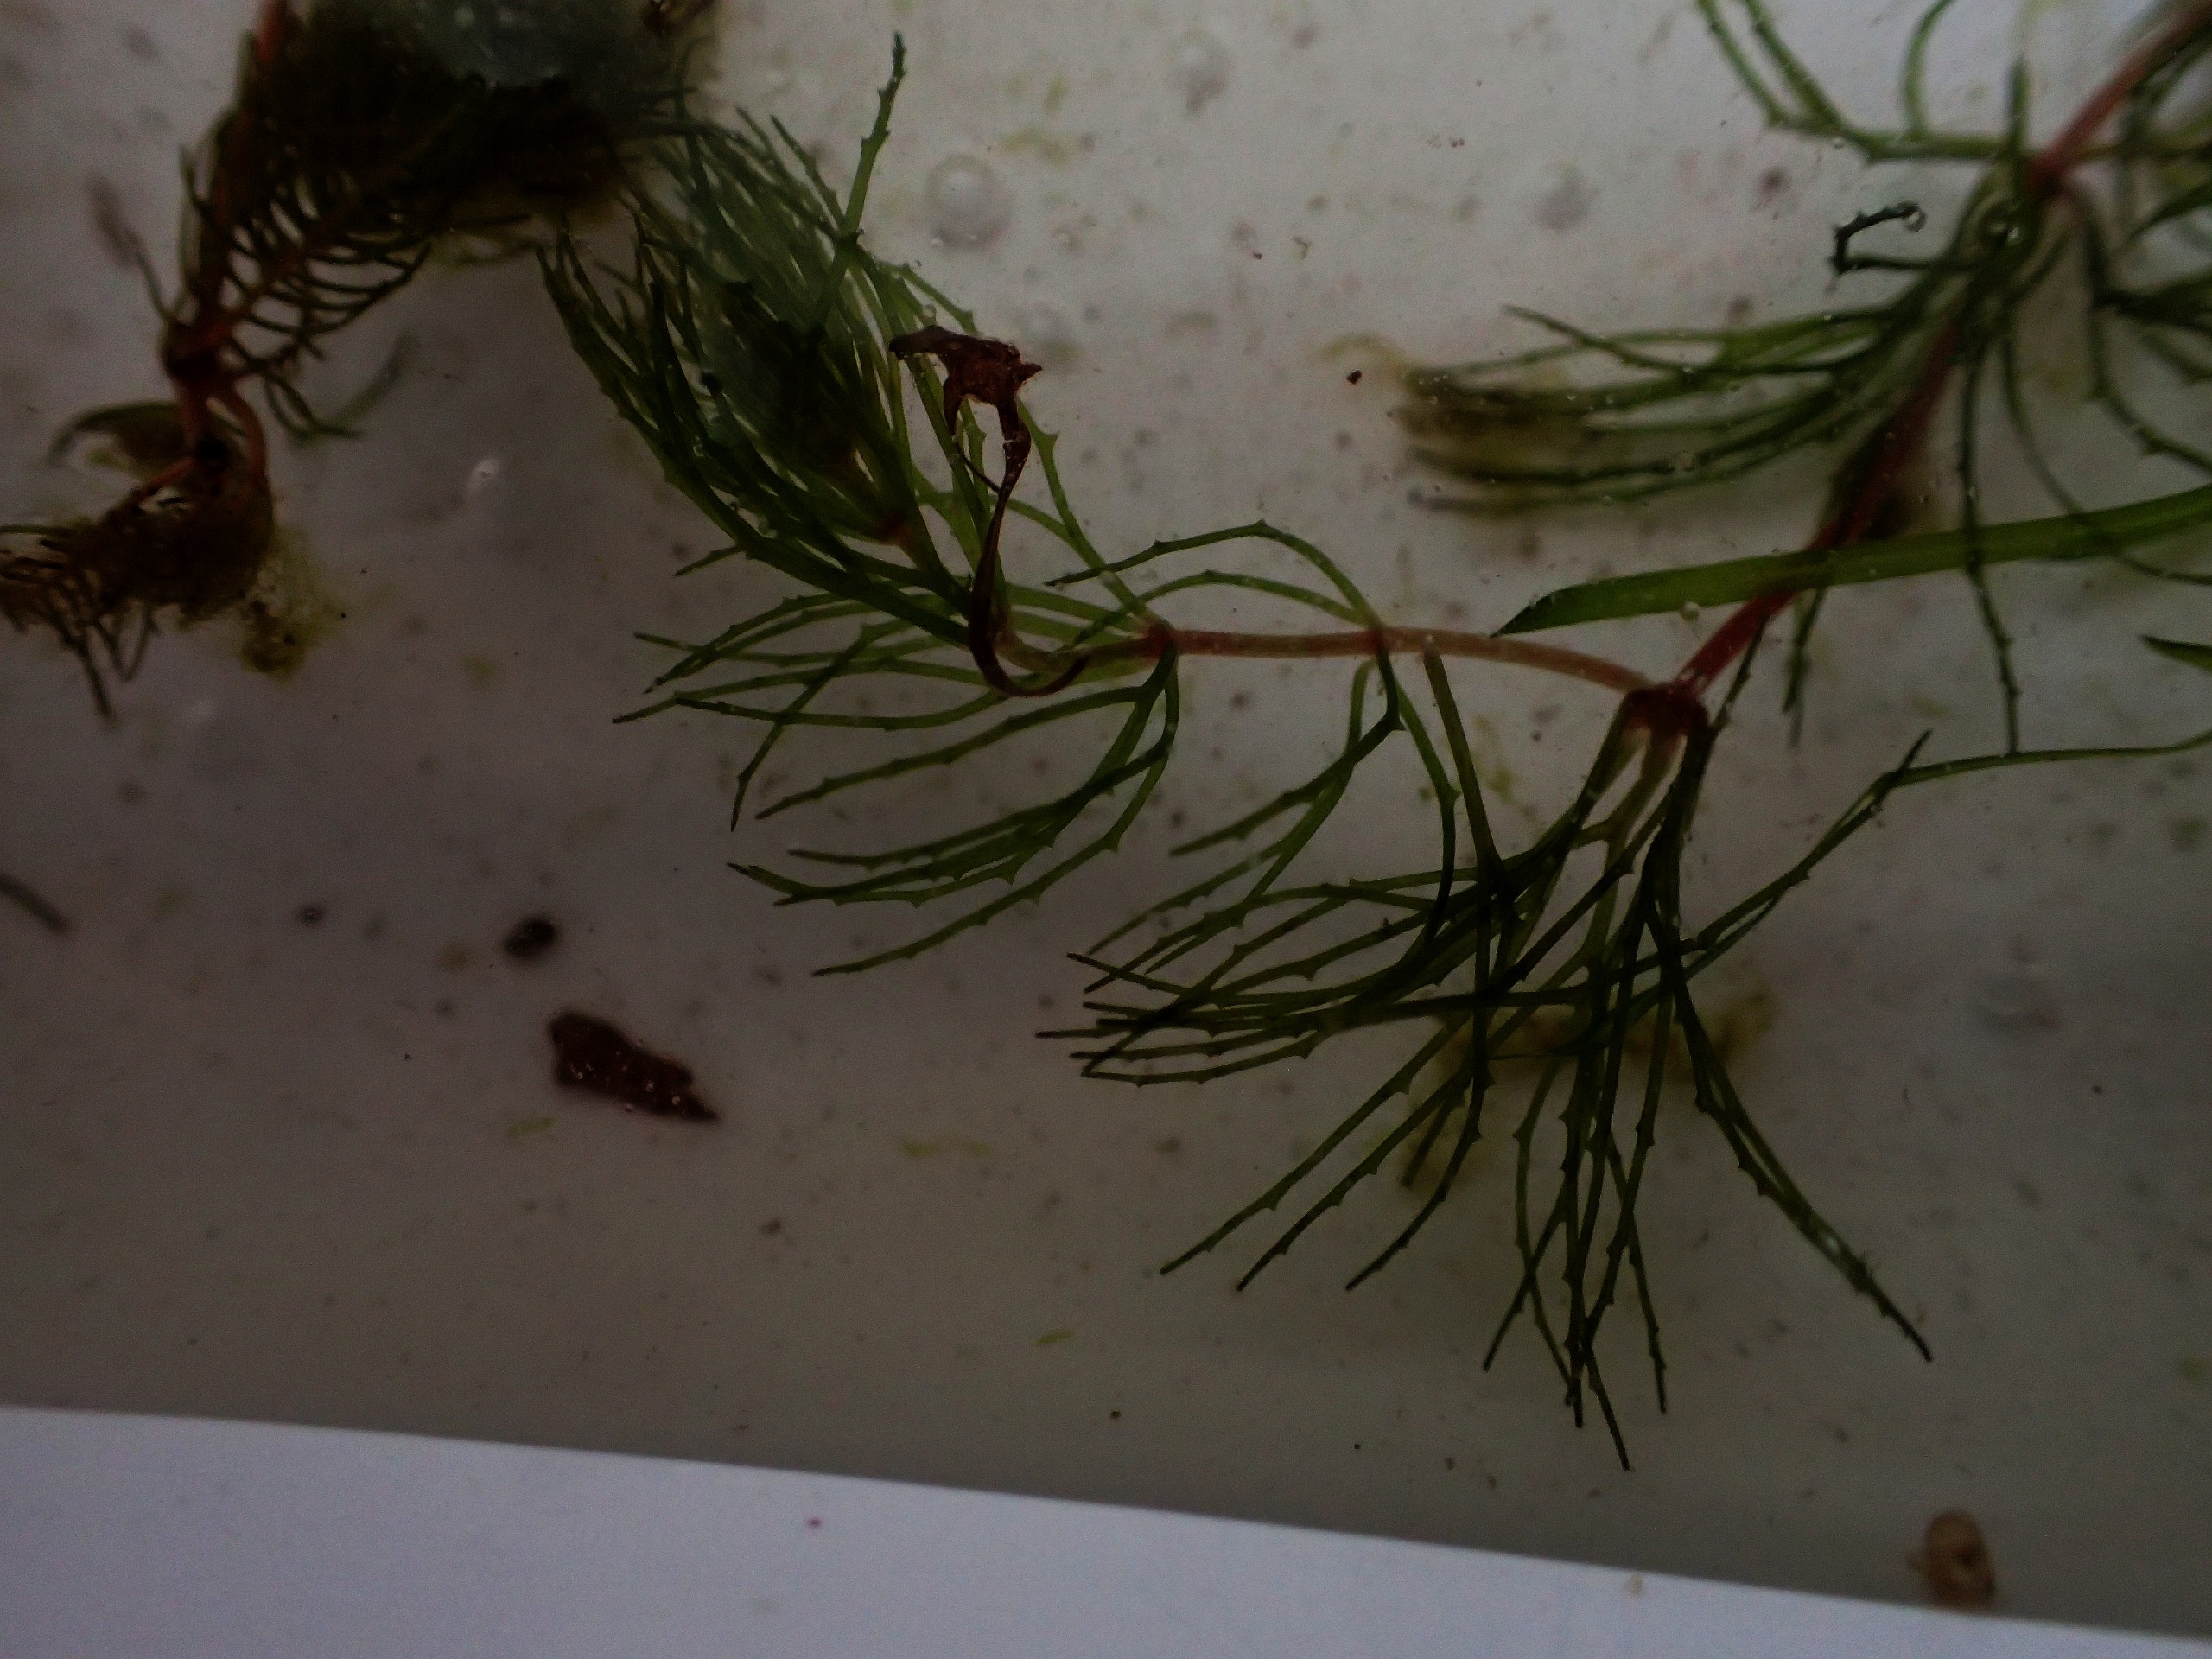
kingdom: Plantae
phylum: Tracheophyta
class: Magnoliopsida
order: Ceratophyllales
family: Ceratophyllaceae
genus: Ceratophyllum
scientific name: Ceratophyllum demersum
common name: Tornfrøet hornblad
